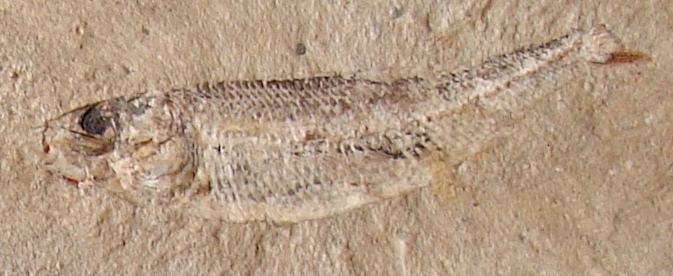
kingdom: Animalia
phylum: Chordata
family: Leptolepididae
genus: Leptolepis
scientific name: Leptolepis normandica
